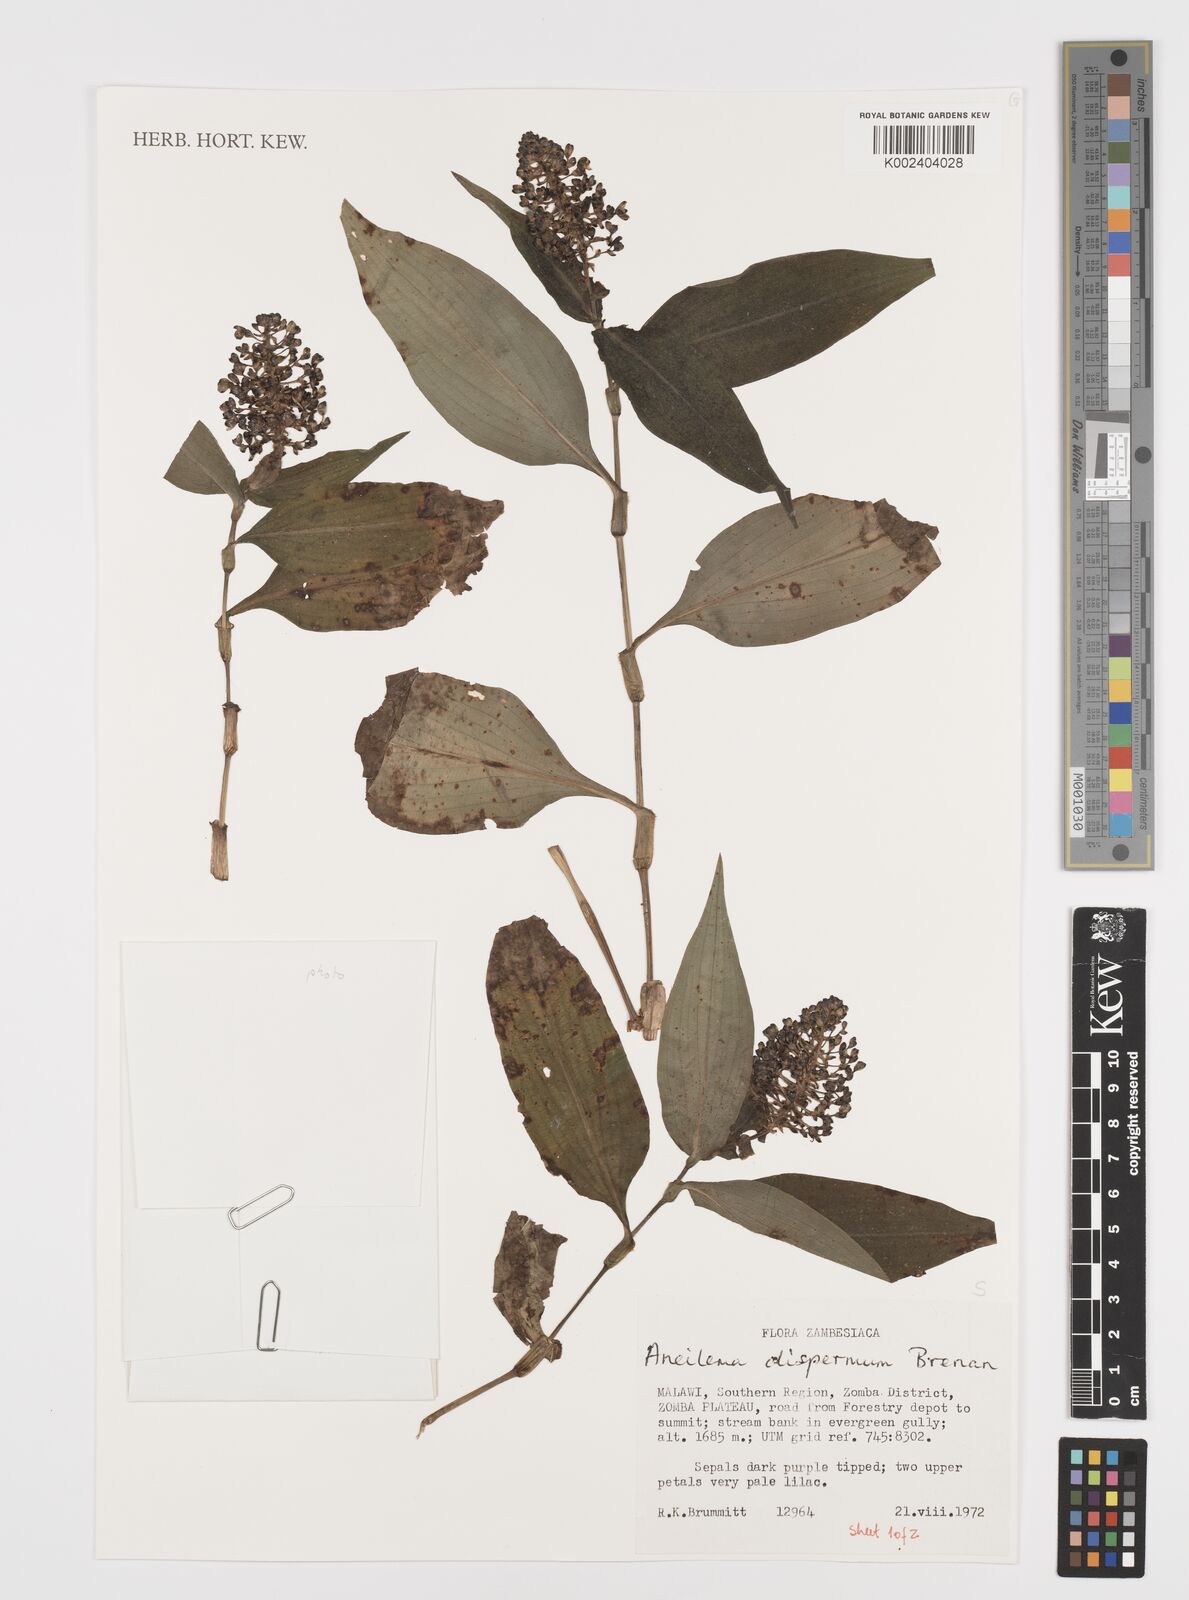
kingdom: Plantae
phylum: Tracheophyta
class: Liliopsida
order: Commelinales
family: Commelinaceae
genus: Aneilema
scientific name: Aneilema dispermum
